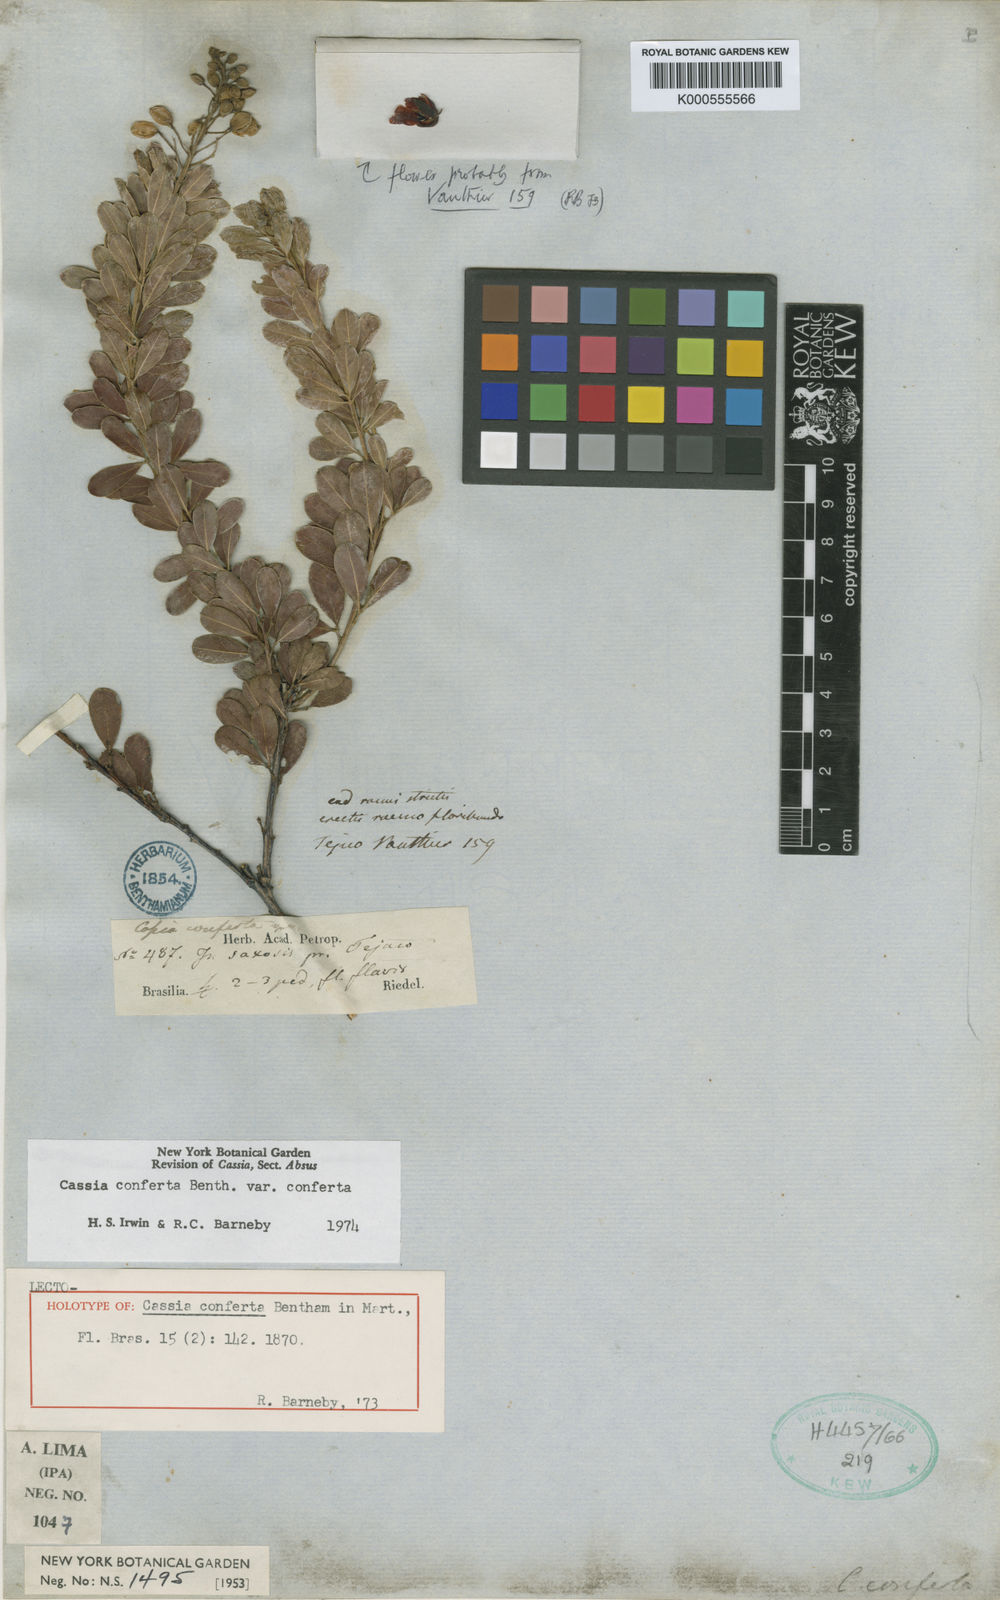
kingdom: Plantae
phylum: Tracheophyta
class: Magnoliopsida
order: Fabales
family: Fabaceae
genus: Chamaecrista
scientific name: Chamaecrista conferta
